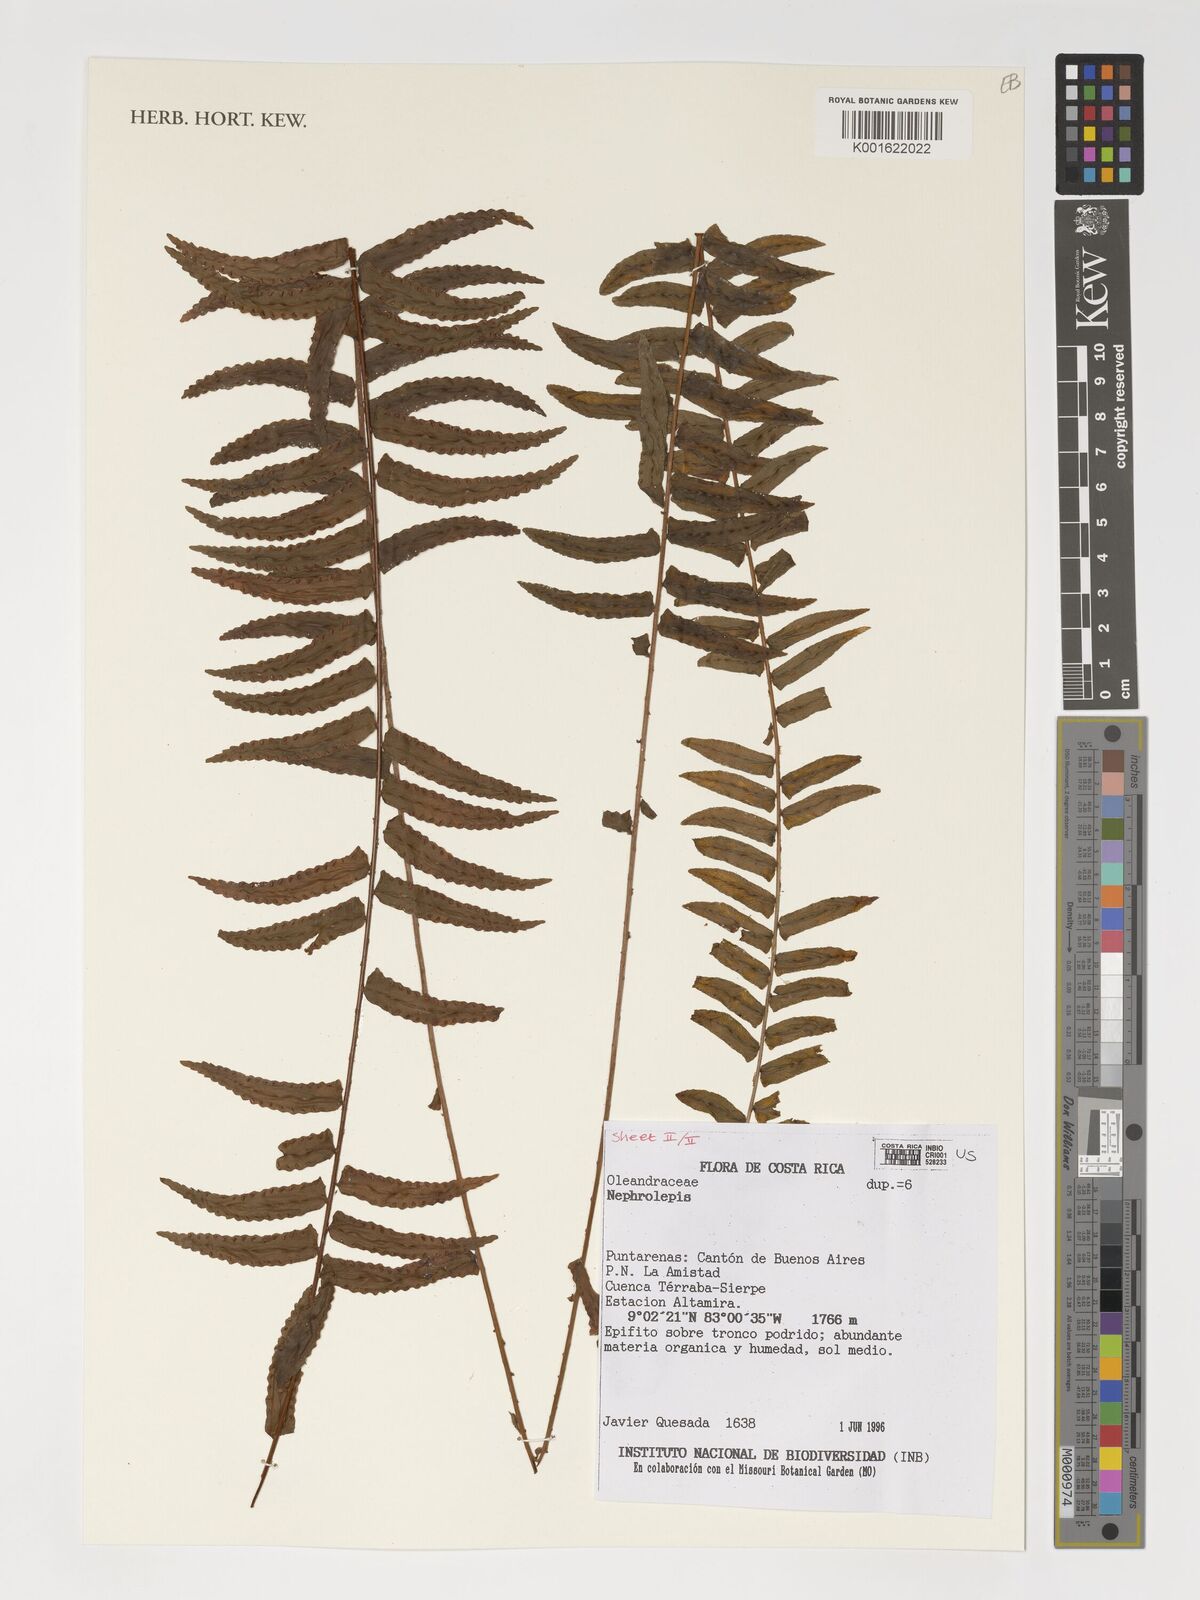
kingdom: Plantae
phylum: Tracheophyta
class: Polypodiopsida
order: Polypodiales
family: Nephrolepidaceae
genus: Nephrolepis
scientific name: Nephrolepis
